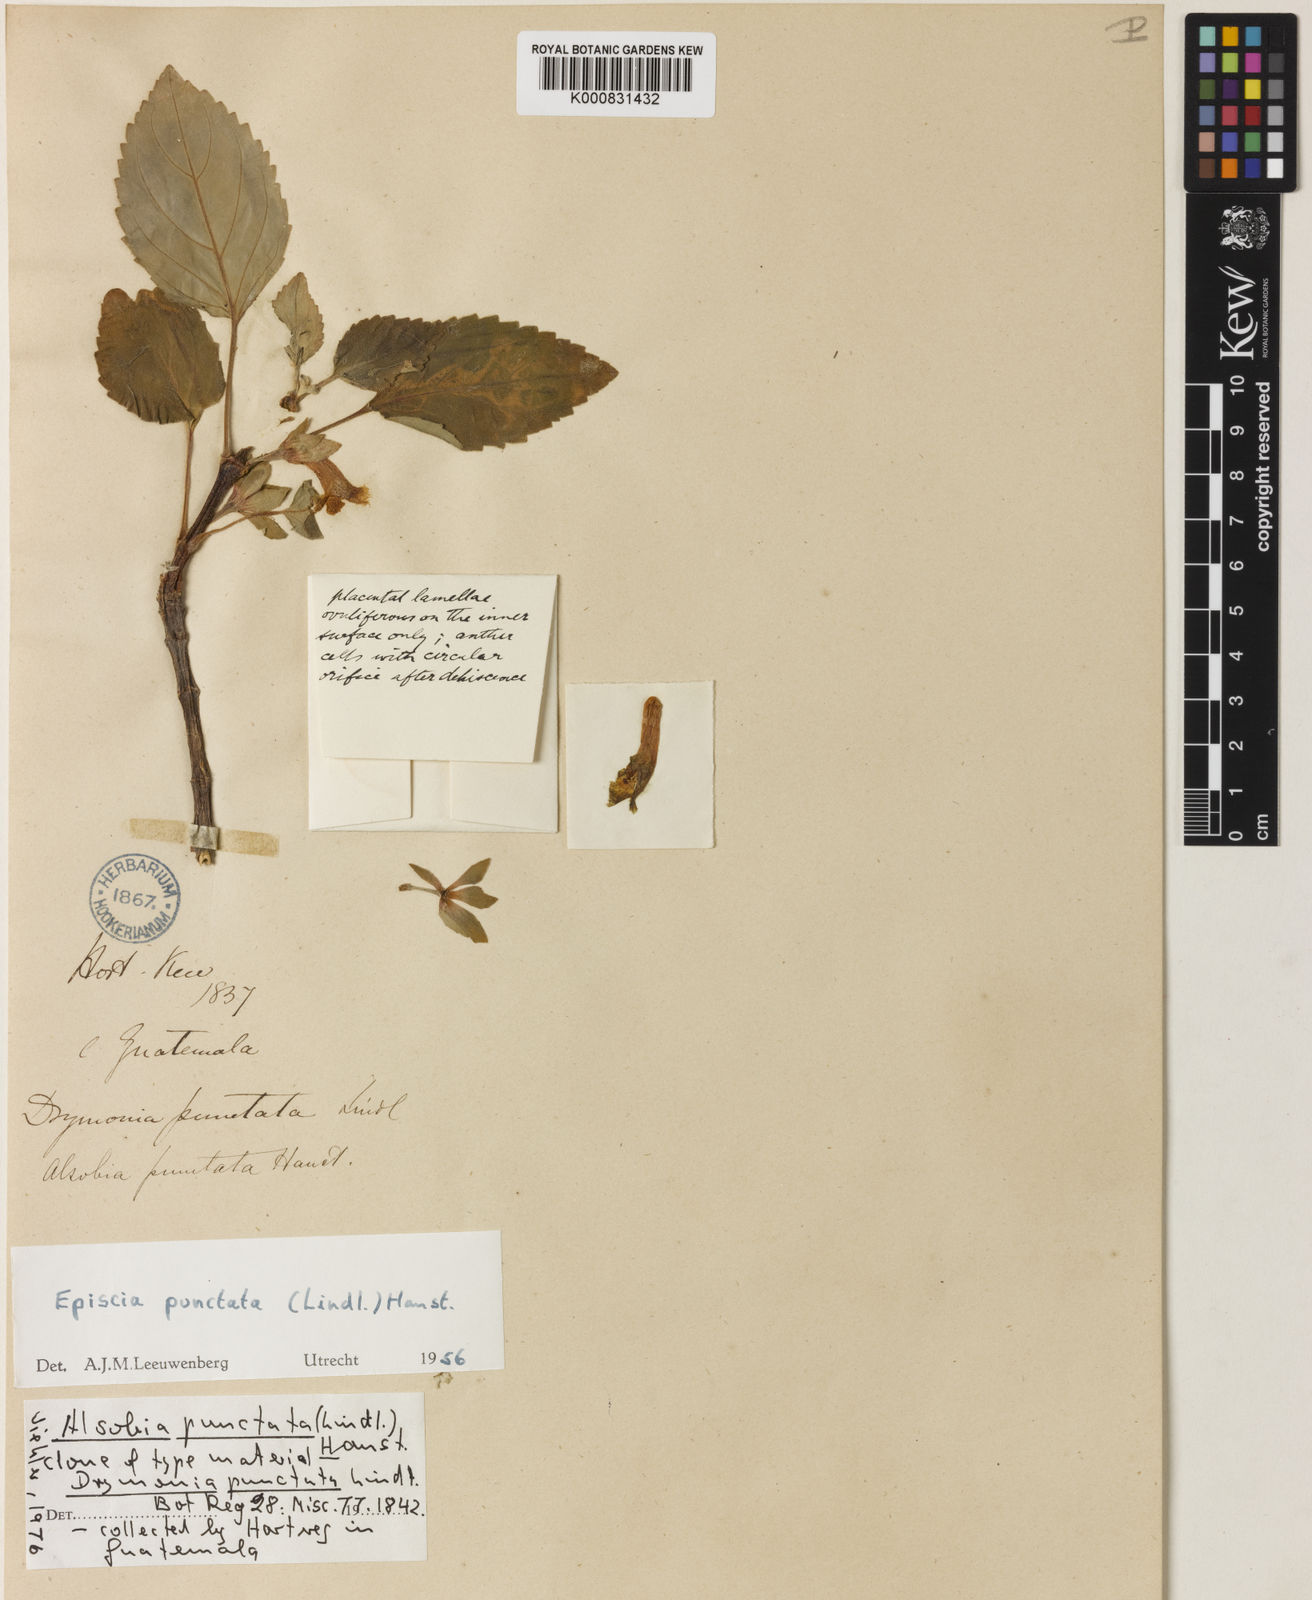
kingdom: Plantae
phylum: Tracheophyta
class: Magnoliopsida
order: Lamiales
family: Gesneriaceae
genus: Alsobia
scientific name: Alsobia punctata
